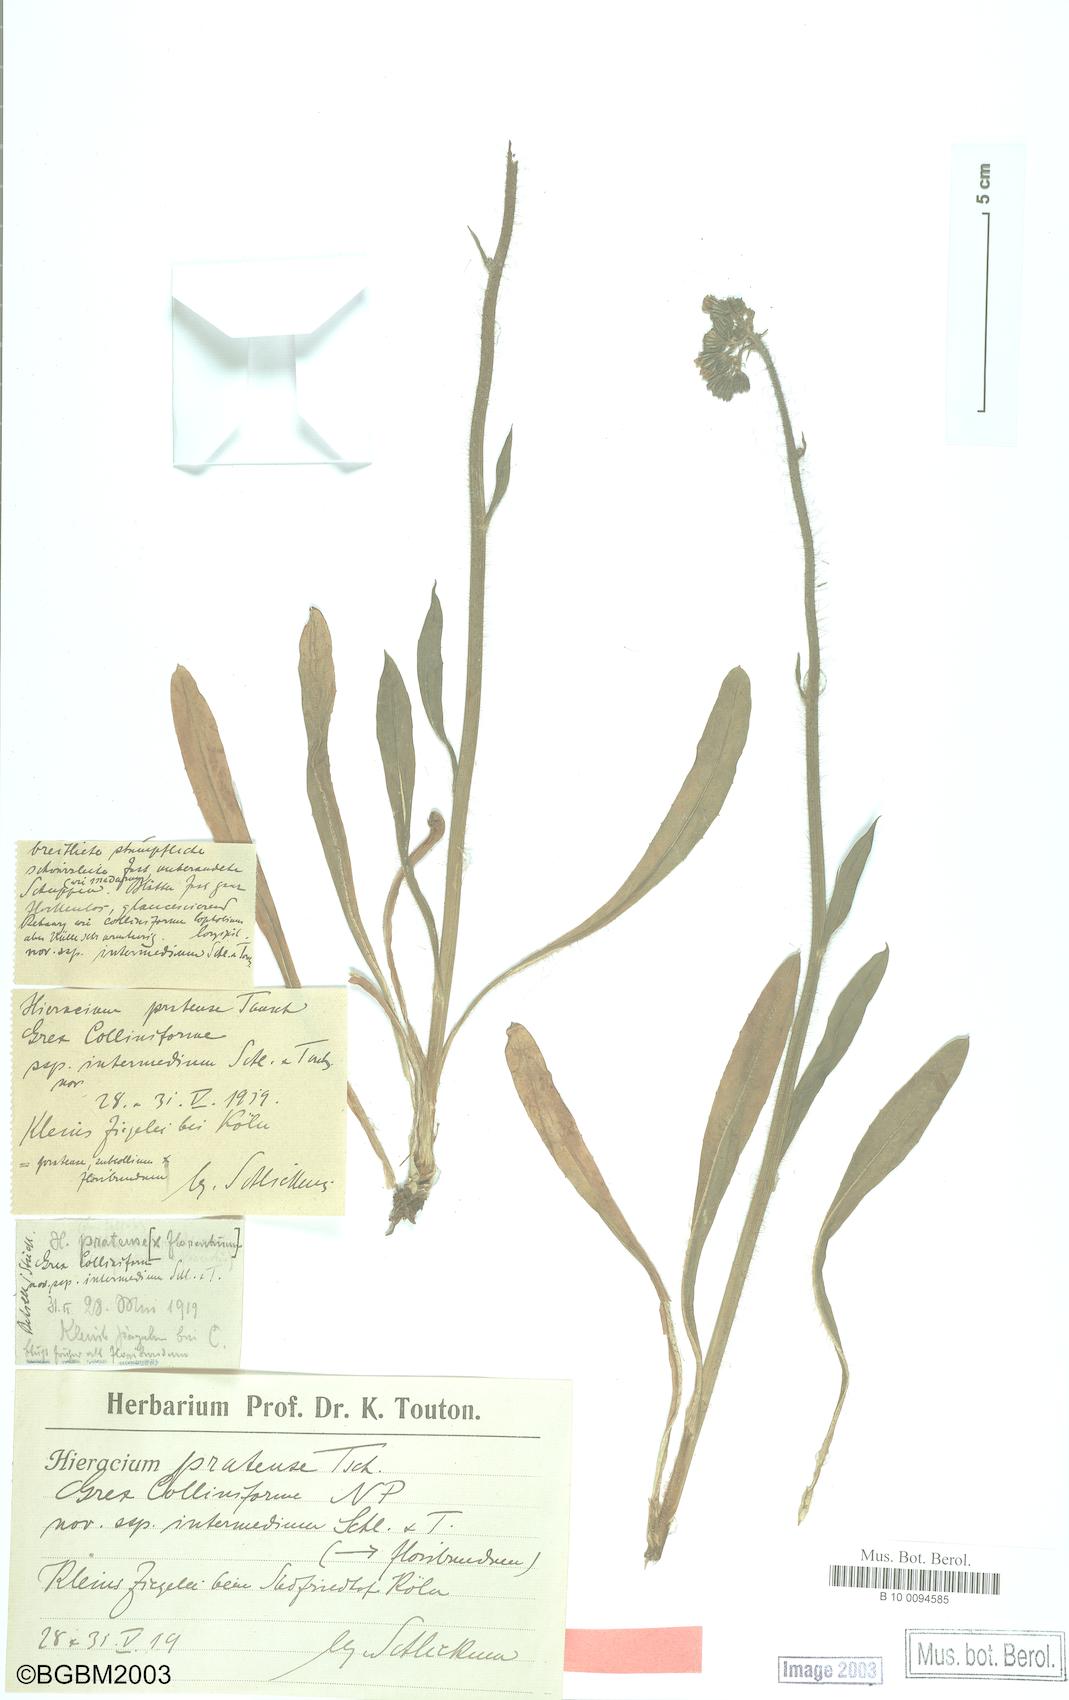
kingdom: Plantae
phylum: Tracheophyta
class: Magnoliopsida
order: Asterales
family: Asteraceae
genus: Pilosella
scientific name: Pilosella caespitosa
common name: Yellow fox-and-cubs
